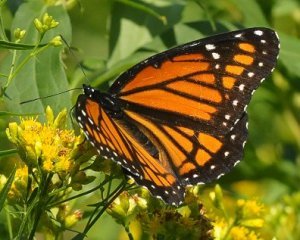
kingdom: Animalia
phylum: Arthropoda
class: Insecta
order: Lepidoptera
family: Nymphalidae
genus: Limenitis
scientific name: Limenitis archippus
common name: Viceroy
